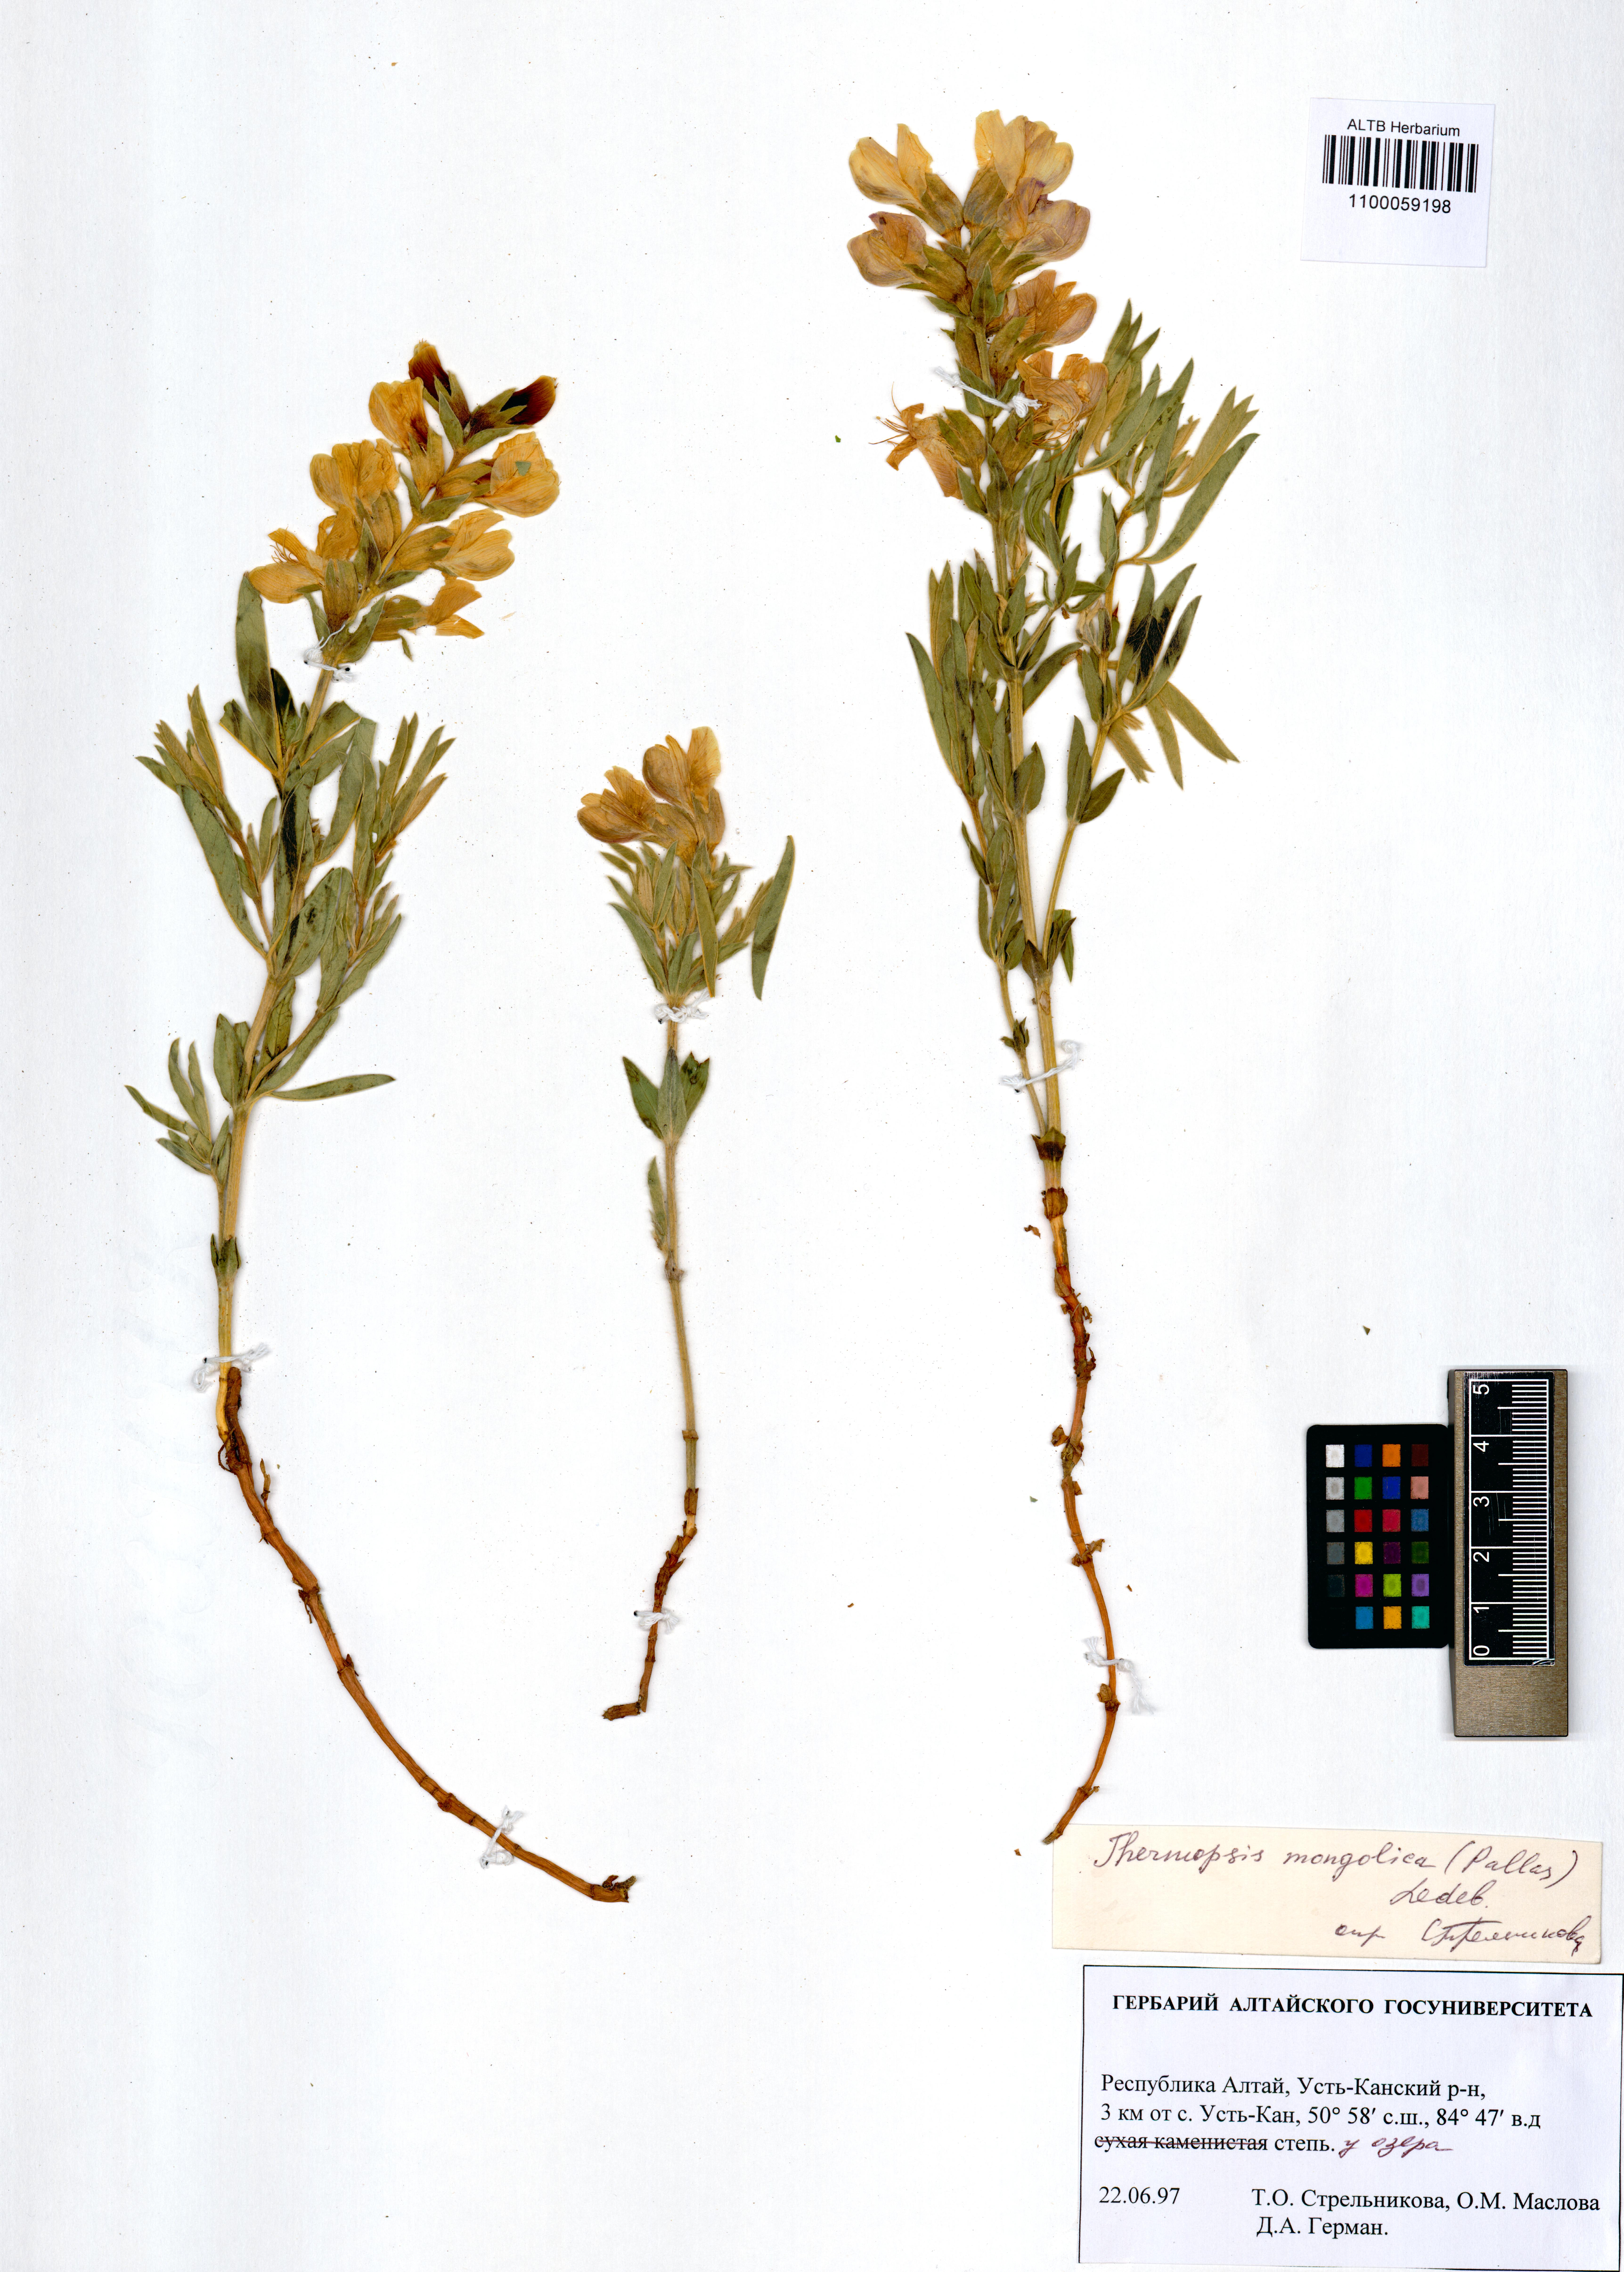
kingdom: Plantae
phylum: Tracheophyta
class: Magnoliopsida
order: Fabales
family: Fabaceae
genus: Thermopsis
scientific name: Thermopsis mongolica
